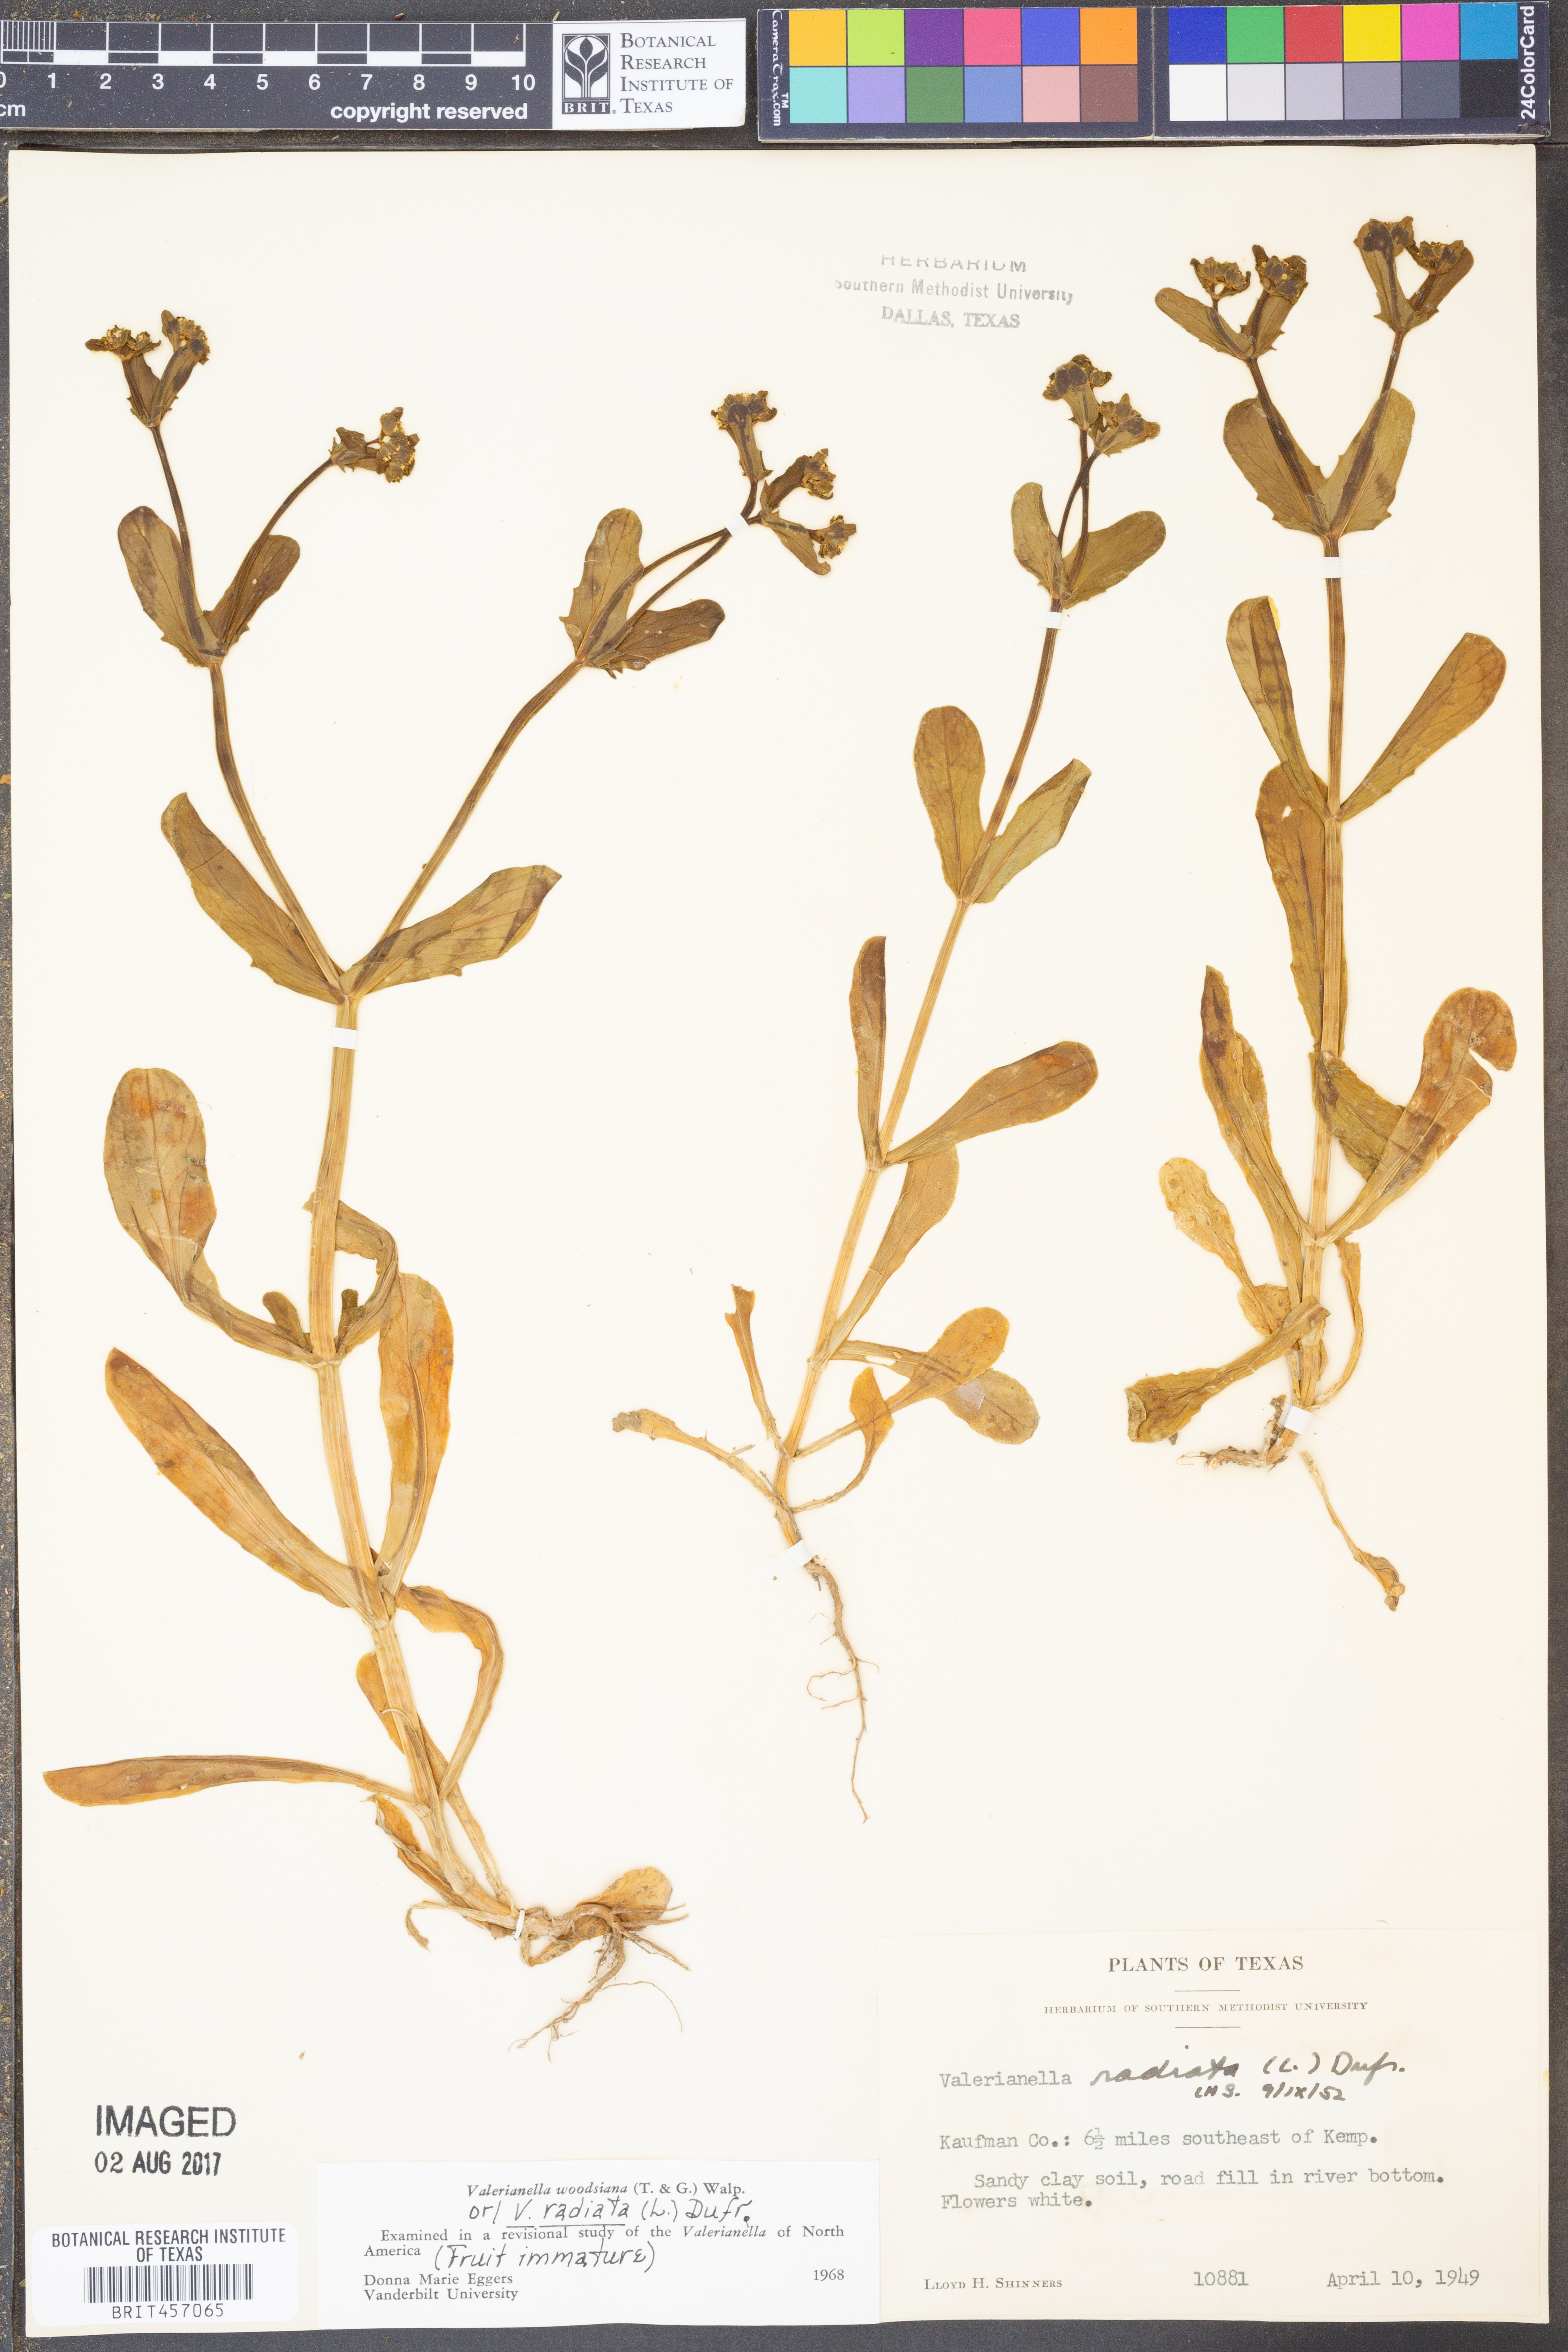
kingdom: Plantae
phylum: Tracheophyta
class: Magnoliopsida
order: Dipsacales
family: Caprifoliaceae
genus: Valerianella
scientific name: Valerianella radiata
